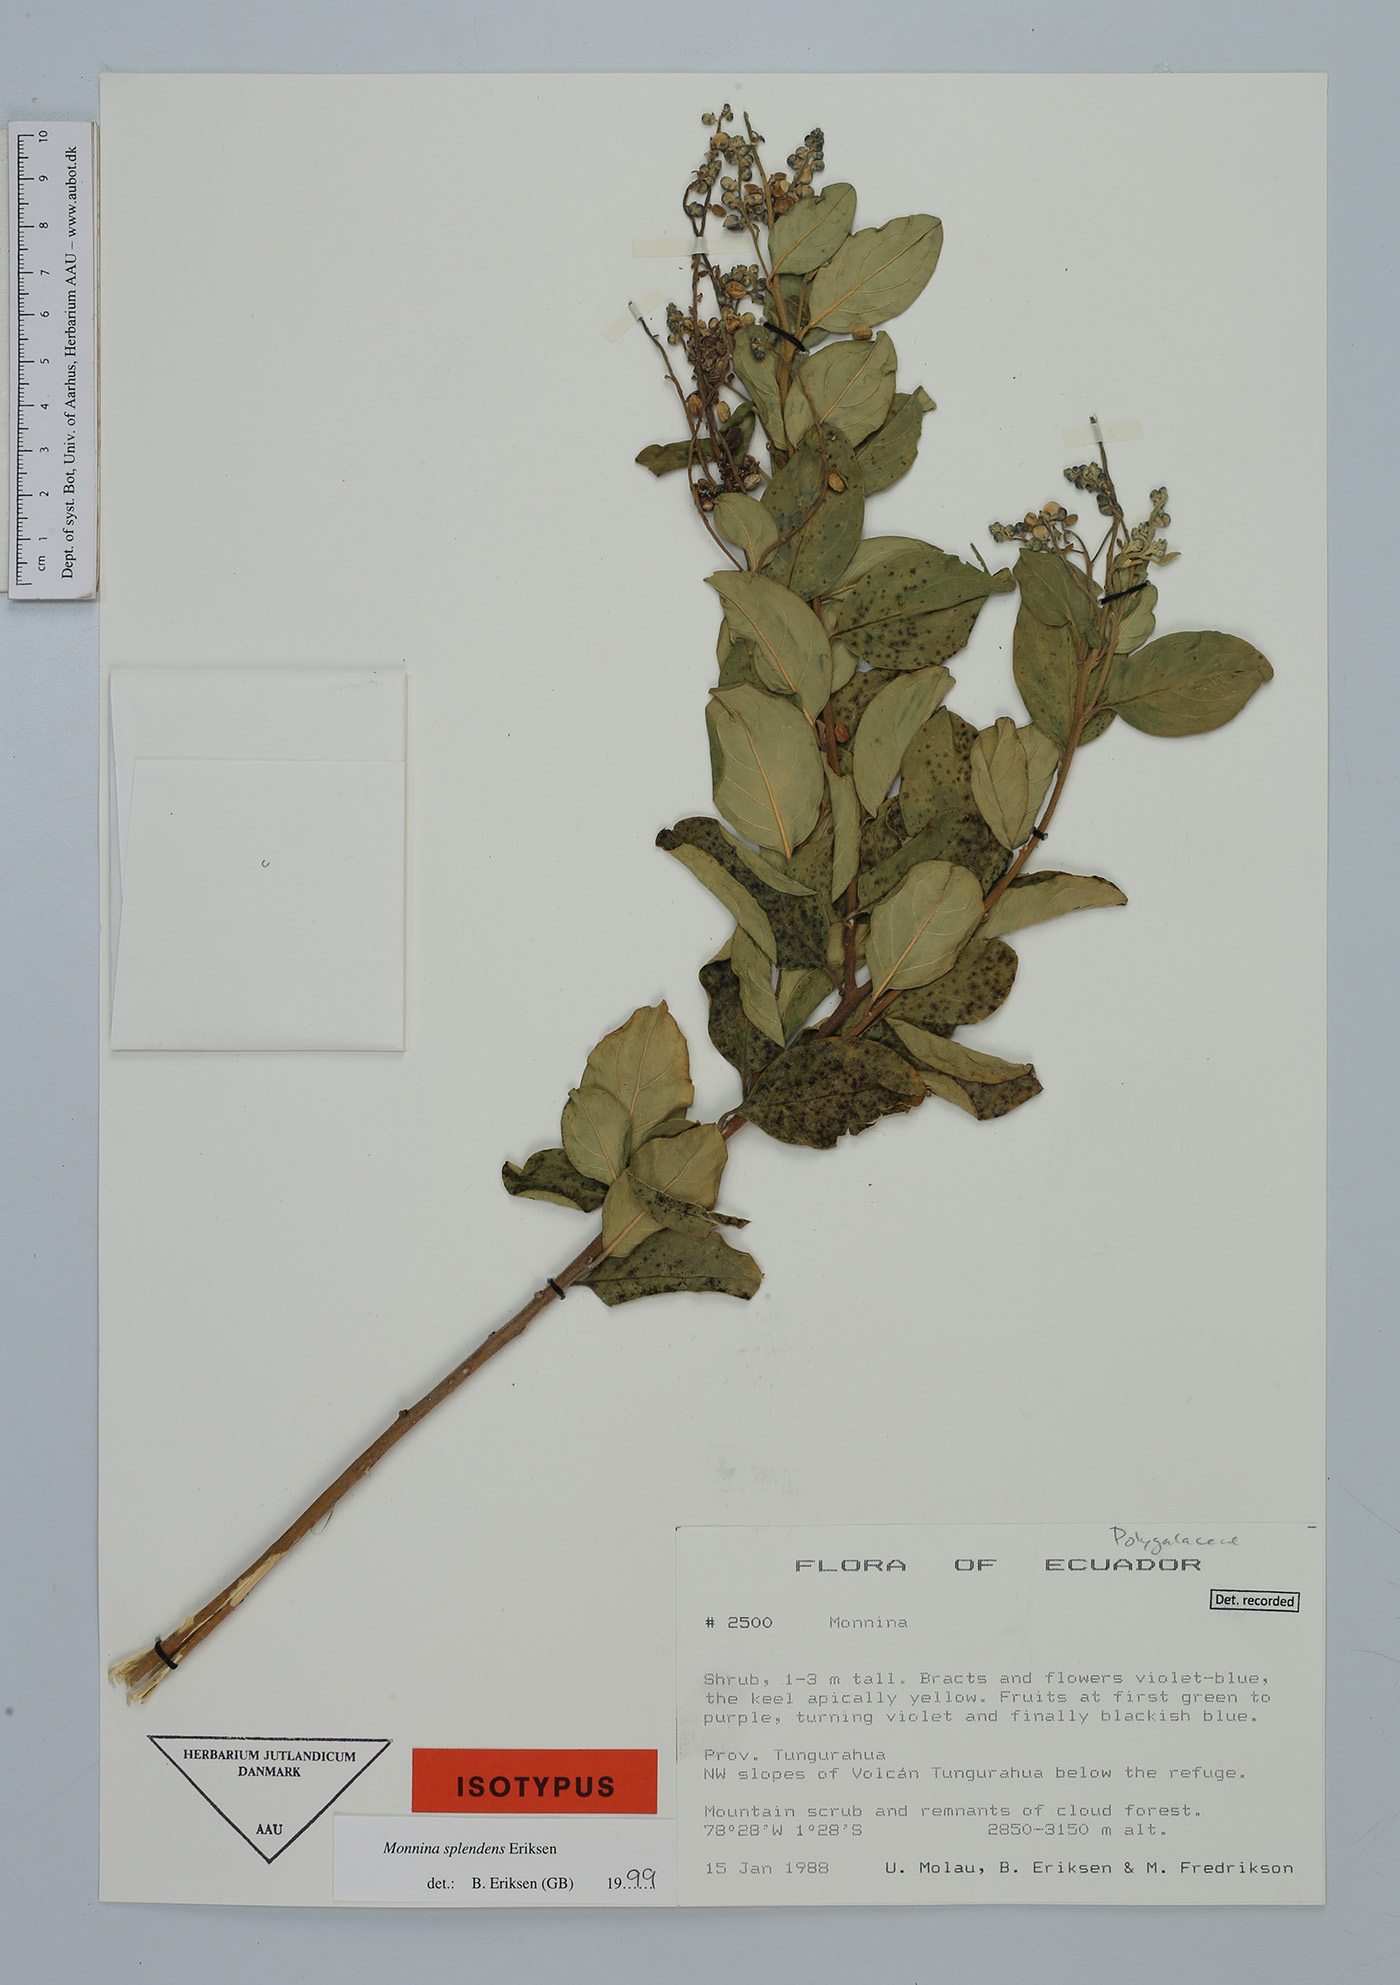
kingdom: Plantae
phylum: Tracheophyta
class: Magnoliopsida
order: Fabales
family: Polygalaceae
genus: Monnina
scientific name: Monnina splendens
